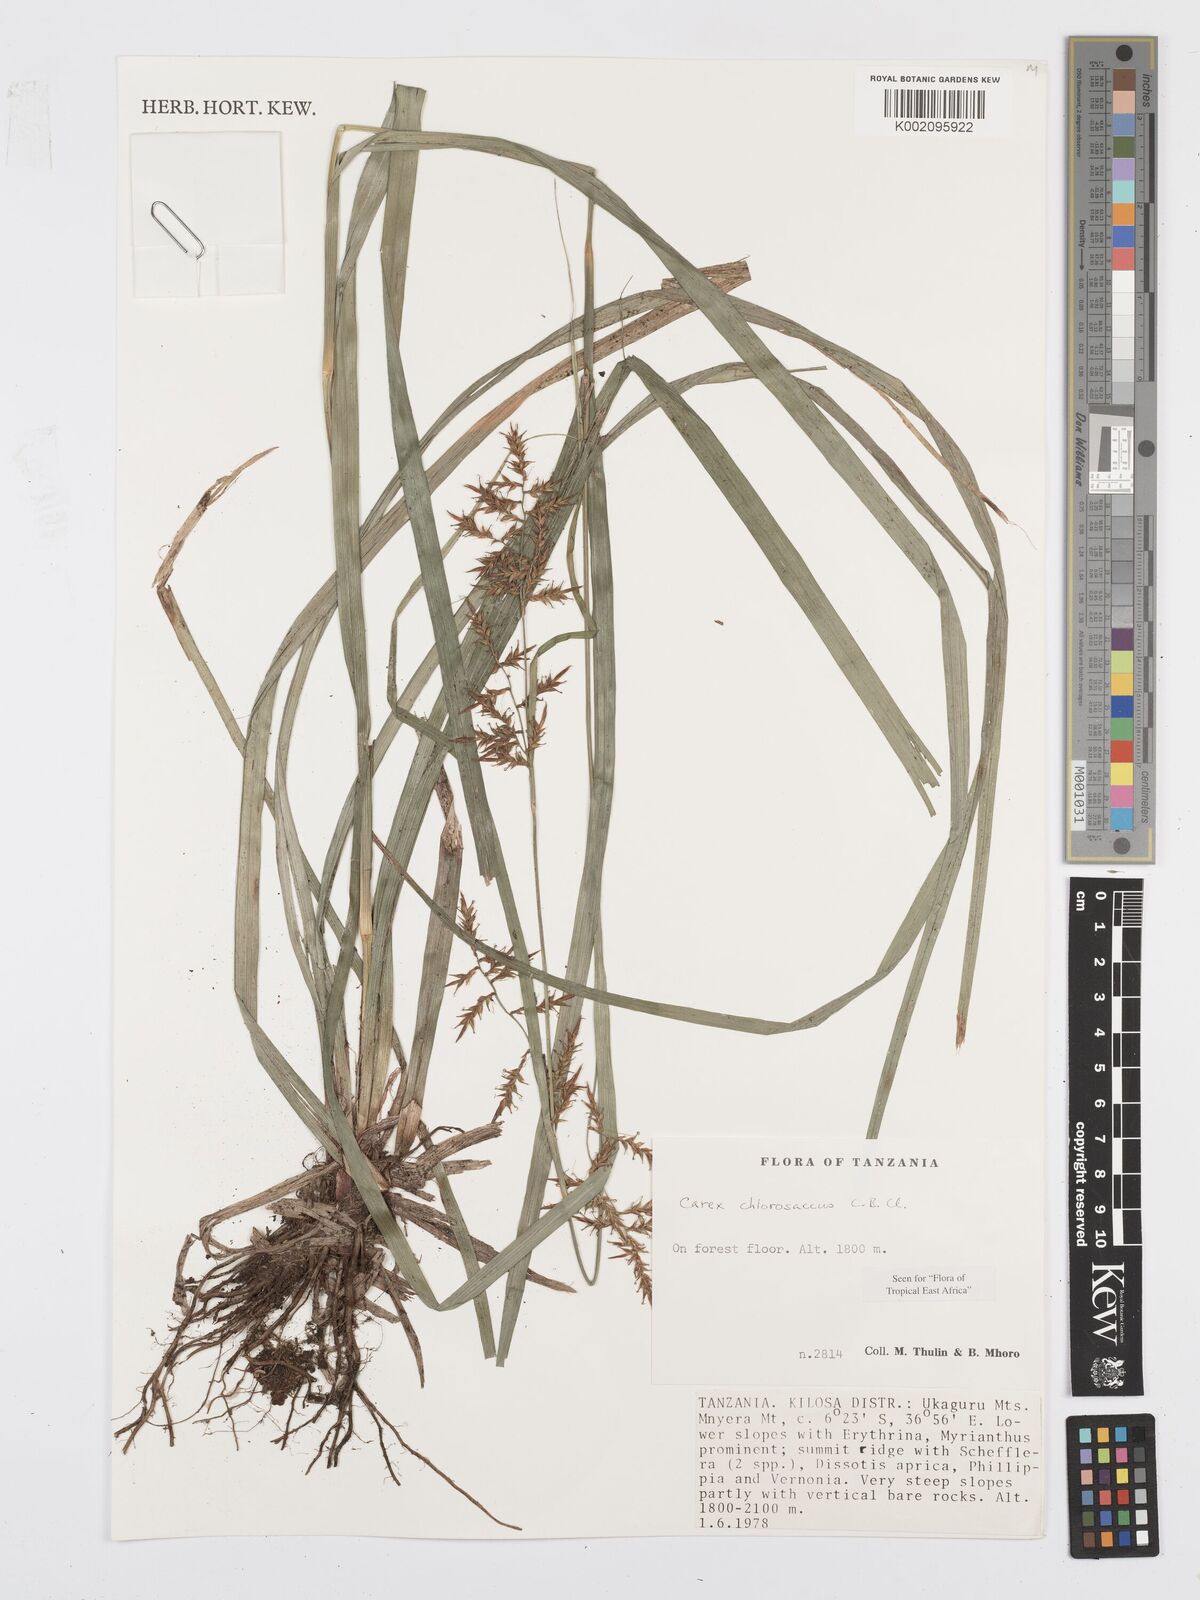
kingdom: Plantae
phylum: Tracheophyta
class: Liliopsida
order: Poales
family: Cyperaceae
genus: Carex
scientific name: Carex chlorosaccus
